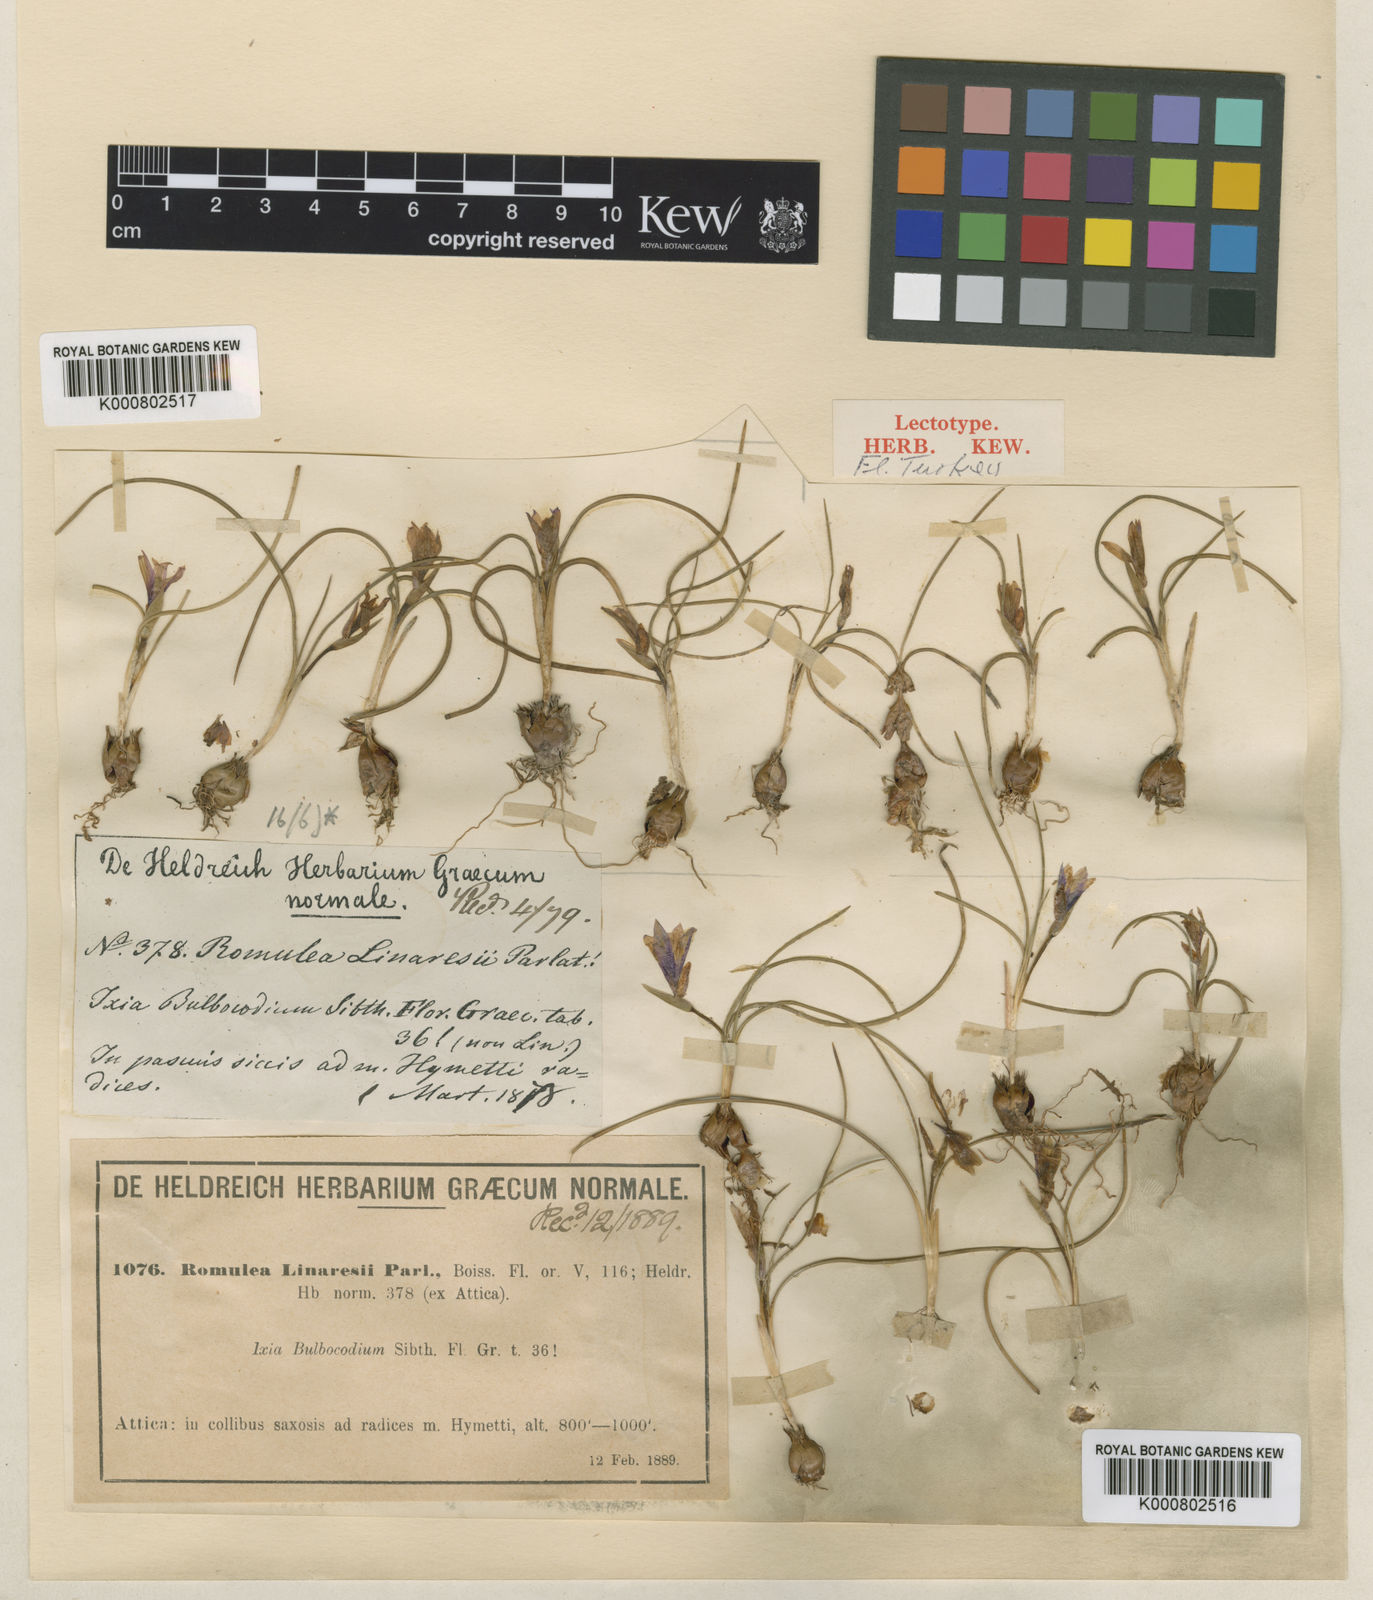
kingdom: Plantae
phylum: Tracheophyta
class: Liliopsida
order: Asparagales
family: Iridaceae
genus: Romulea
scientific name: Romulea linaresii
